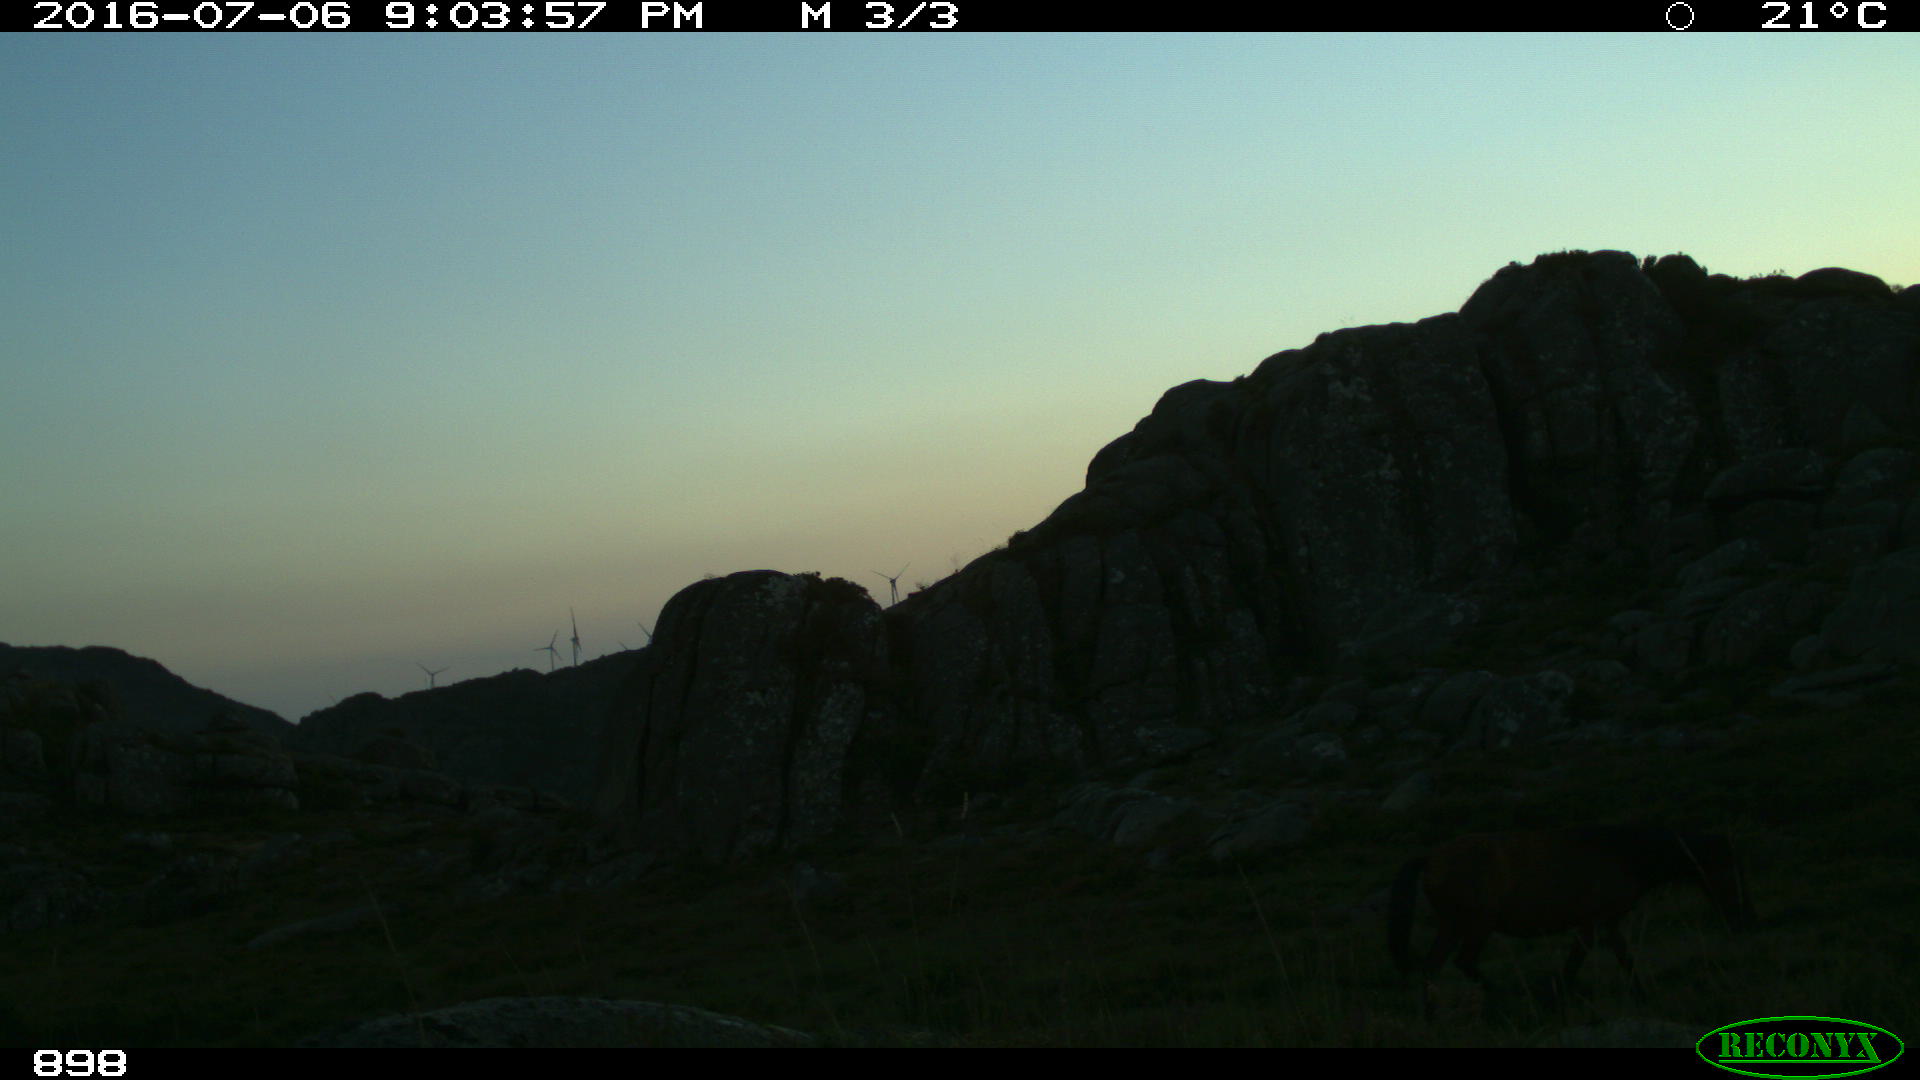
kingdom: Animalia
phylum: Chordata
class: Mammalia
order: Perissodactyla
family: Equidae
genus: Equus
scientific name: Equus caballus
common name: Horse
